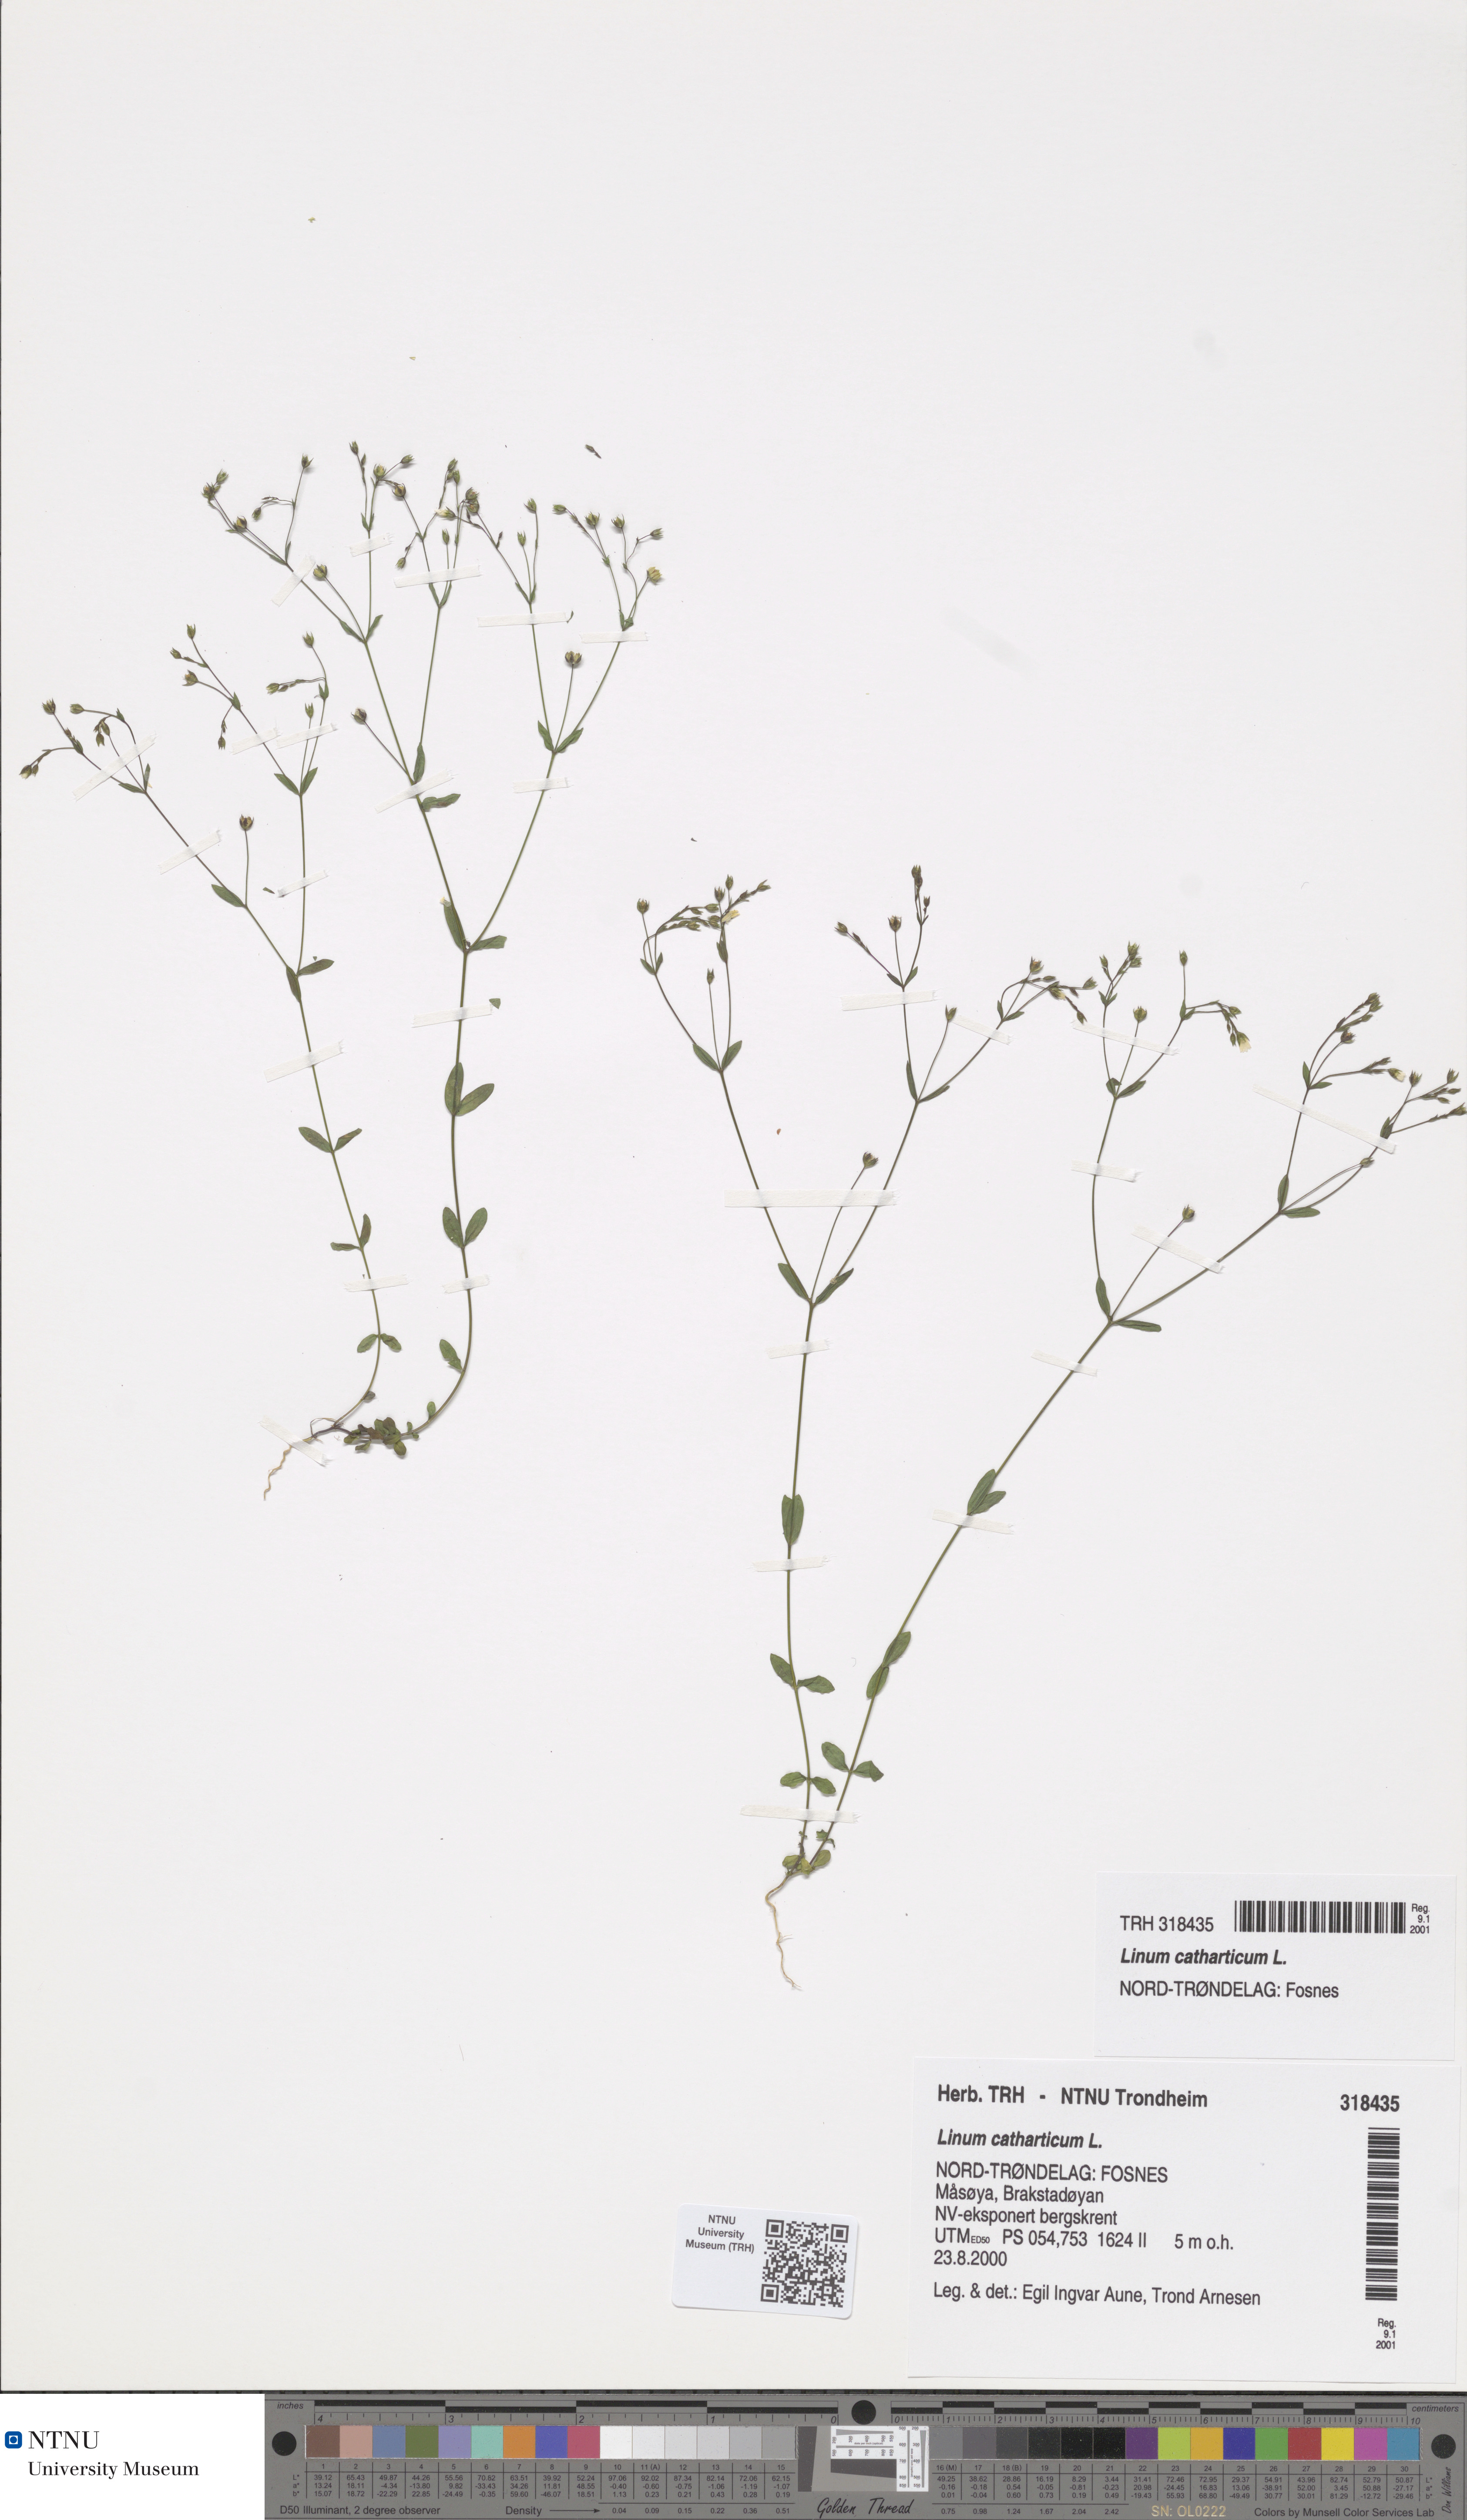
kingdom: Plantae
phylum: Tracheophyta
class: Magnoliopsida
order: Malpighiales
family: Linaceae
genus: Linum
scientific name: Linum catharticum
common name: Fairy flax
